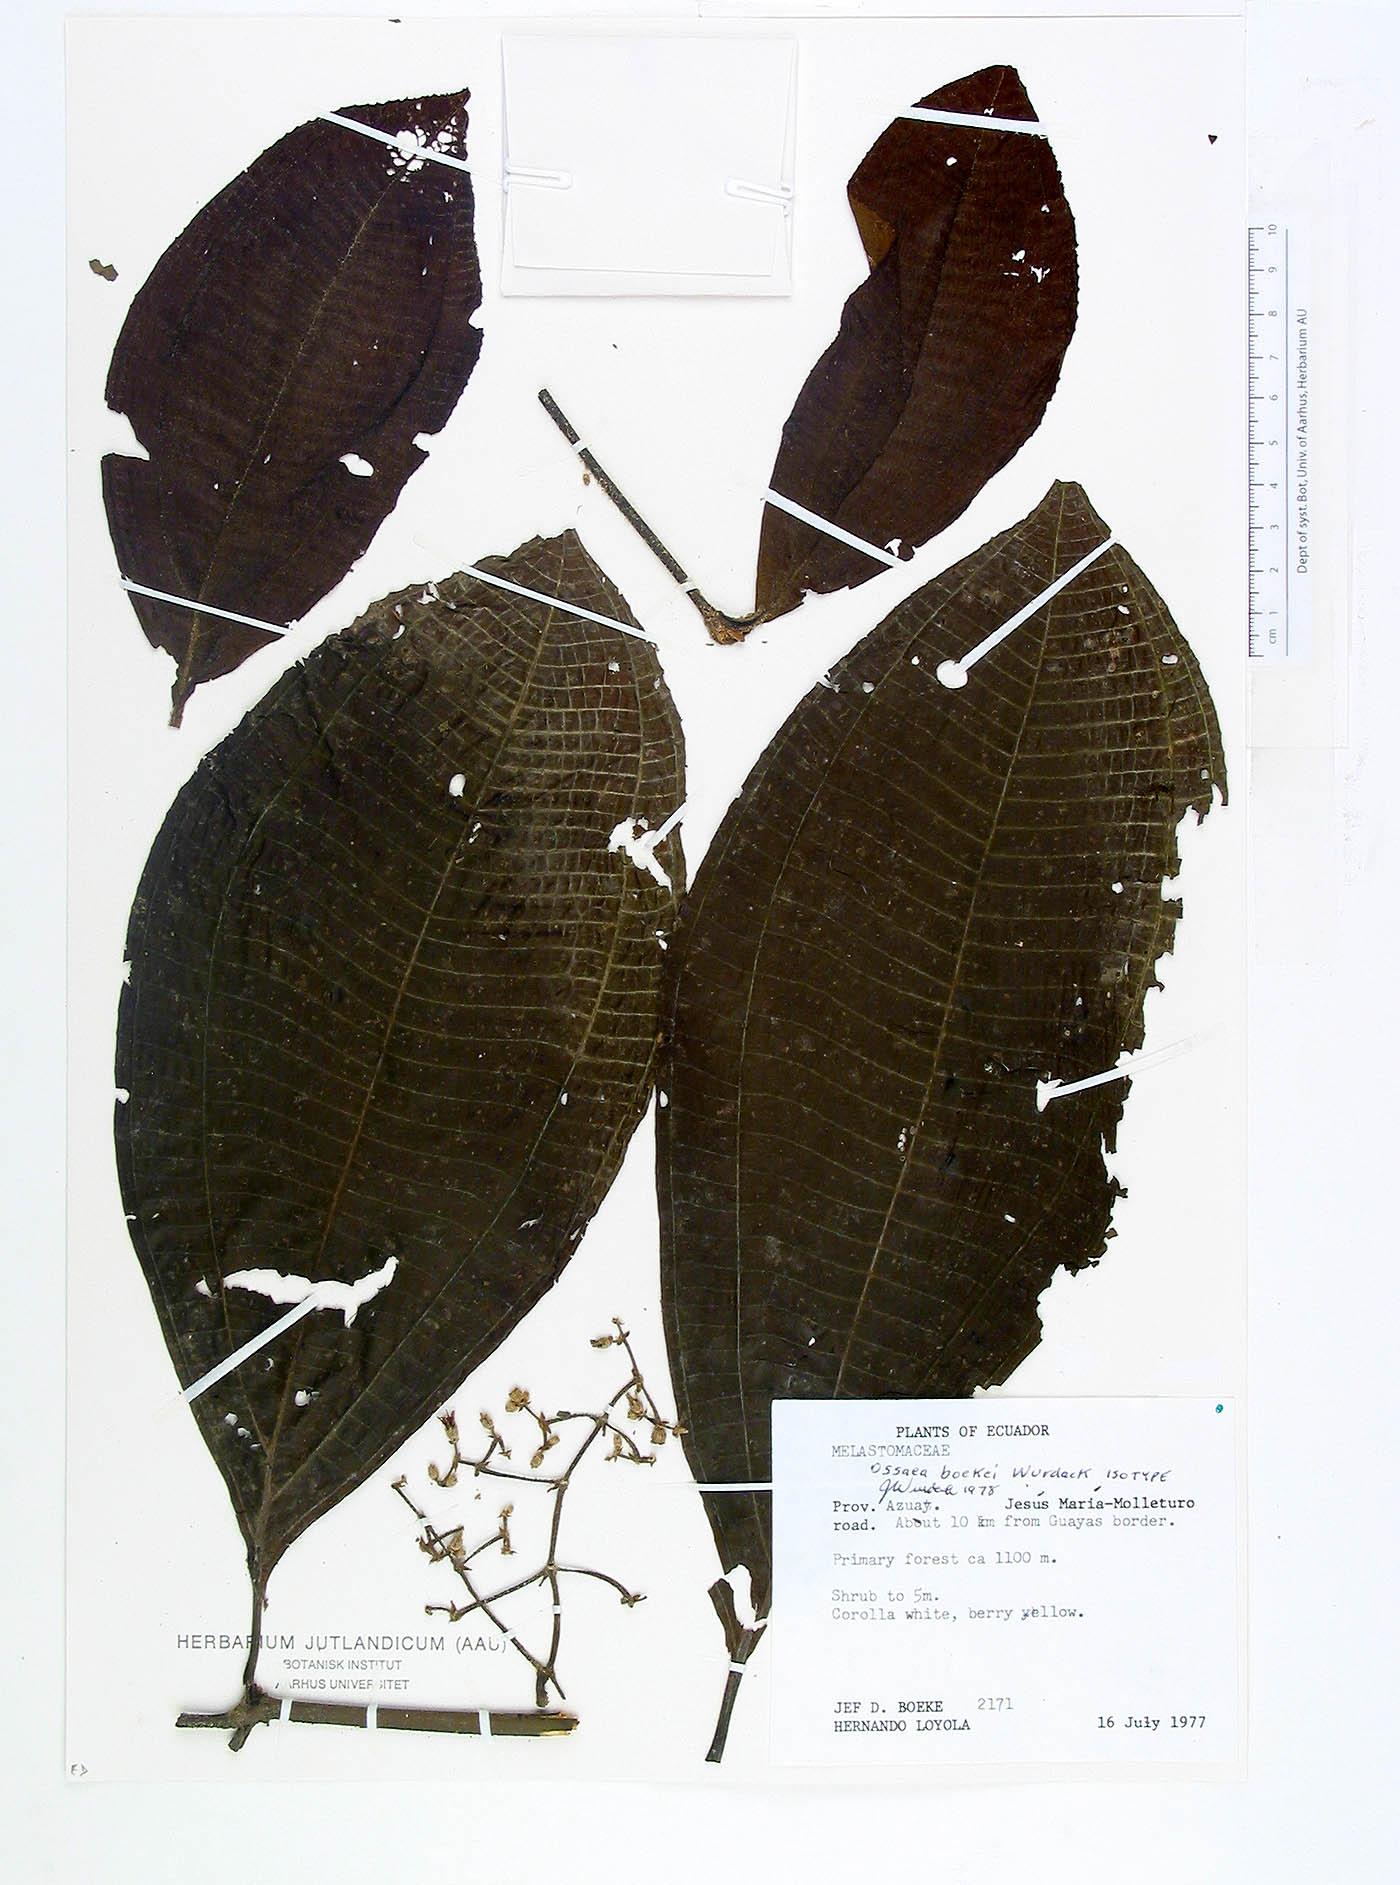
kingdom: Plantae
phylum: Tracheophyta
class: Magnoliopsida
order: Myrtales
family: Melastomataceae
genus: Miconia
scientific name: Miconia boekei
